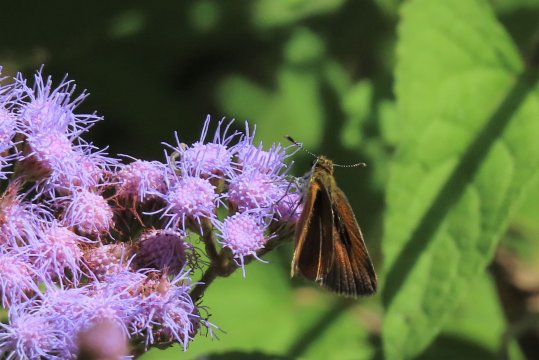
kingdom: Animalia
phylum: Arthropoda
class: Insecta
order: Lepidoptera
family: Hesperiidae
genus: Ancyloxypha
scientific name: Ancyloxypha numitor
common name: Least Skipper
